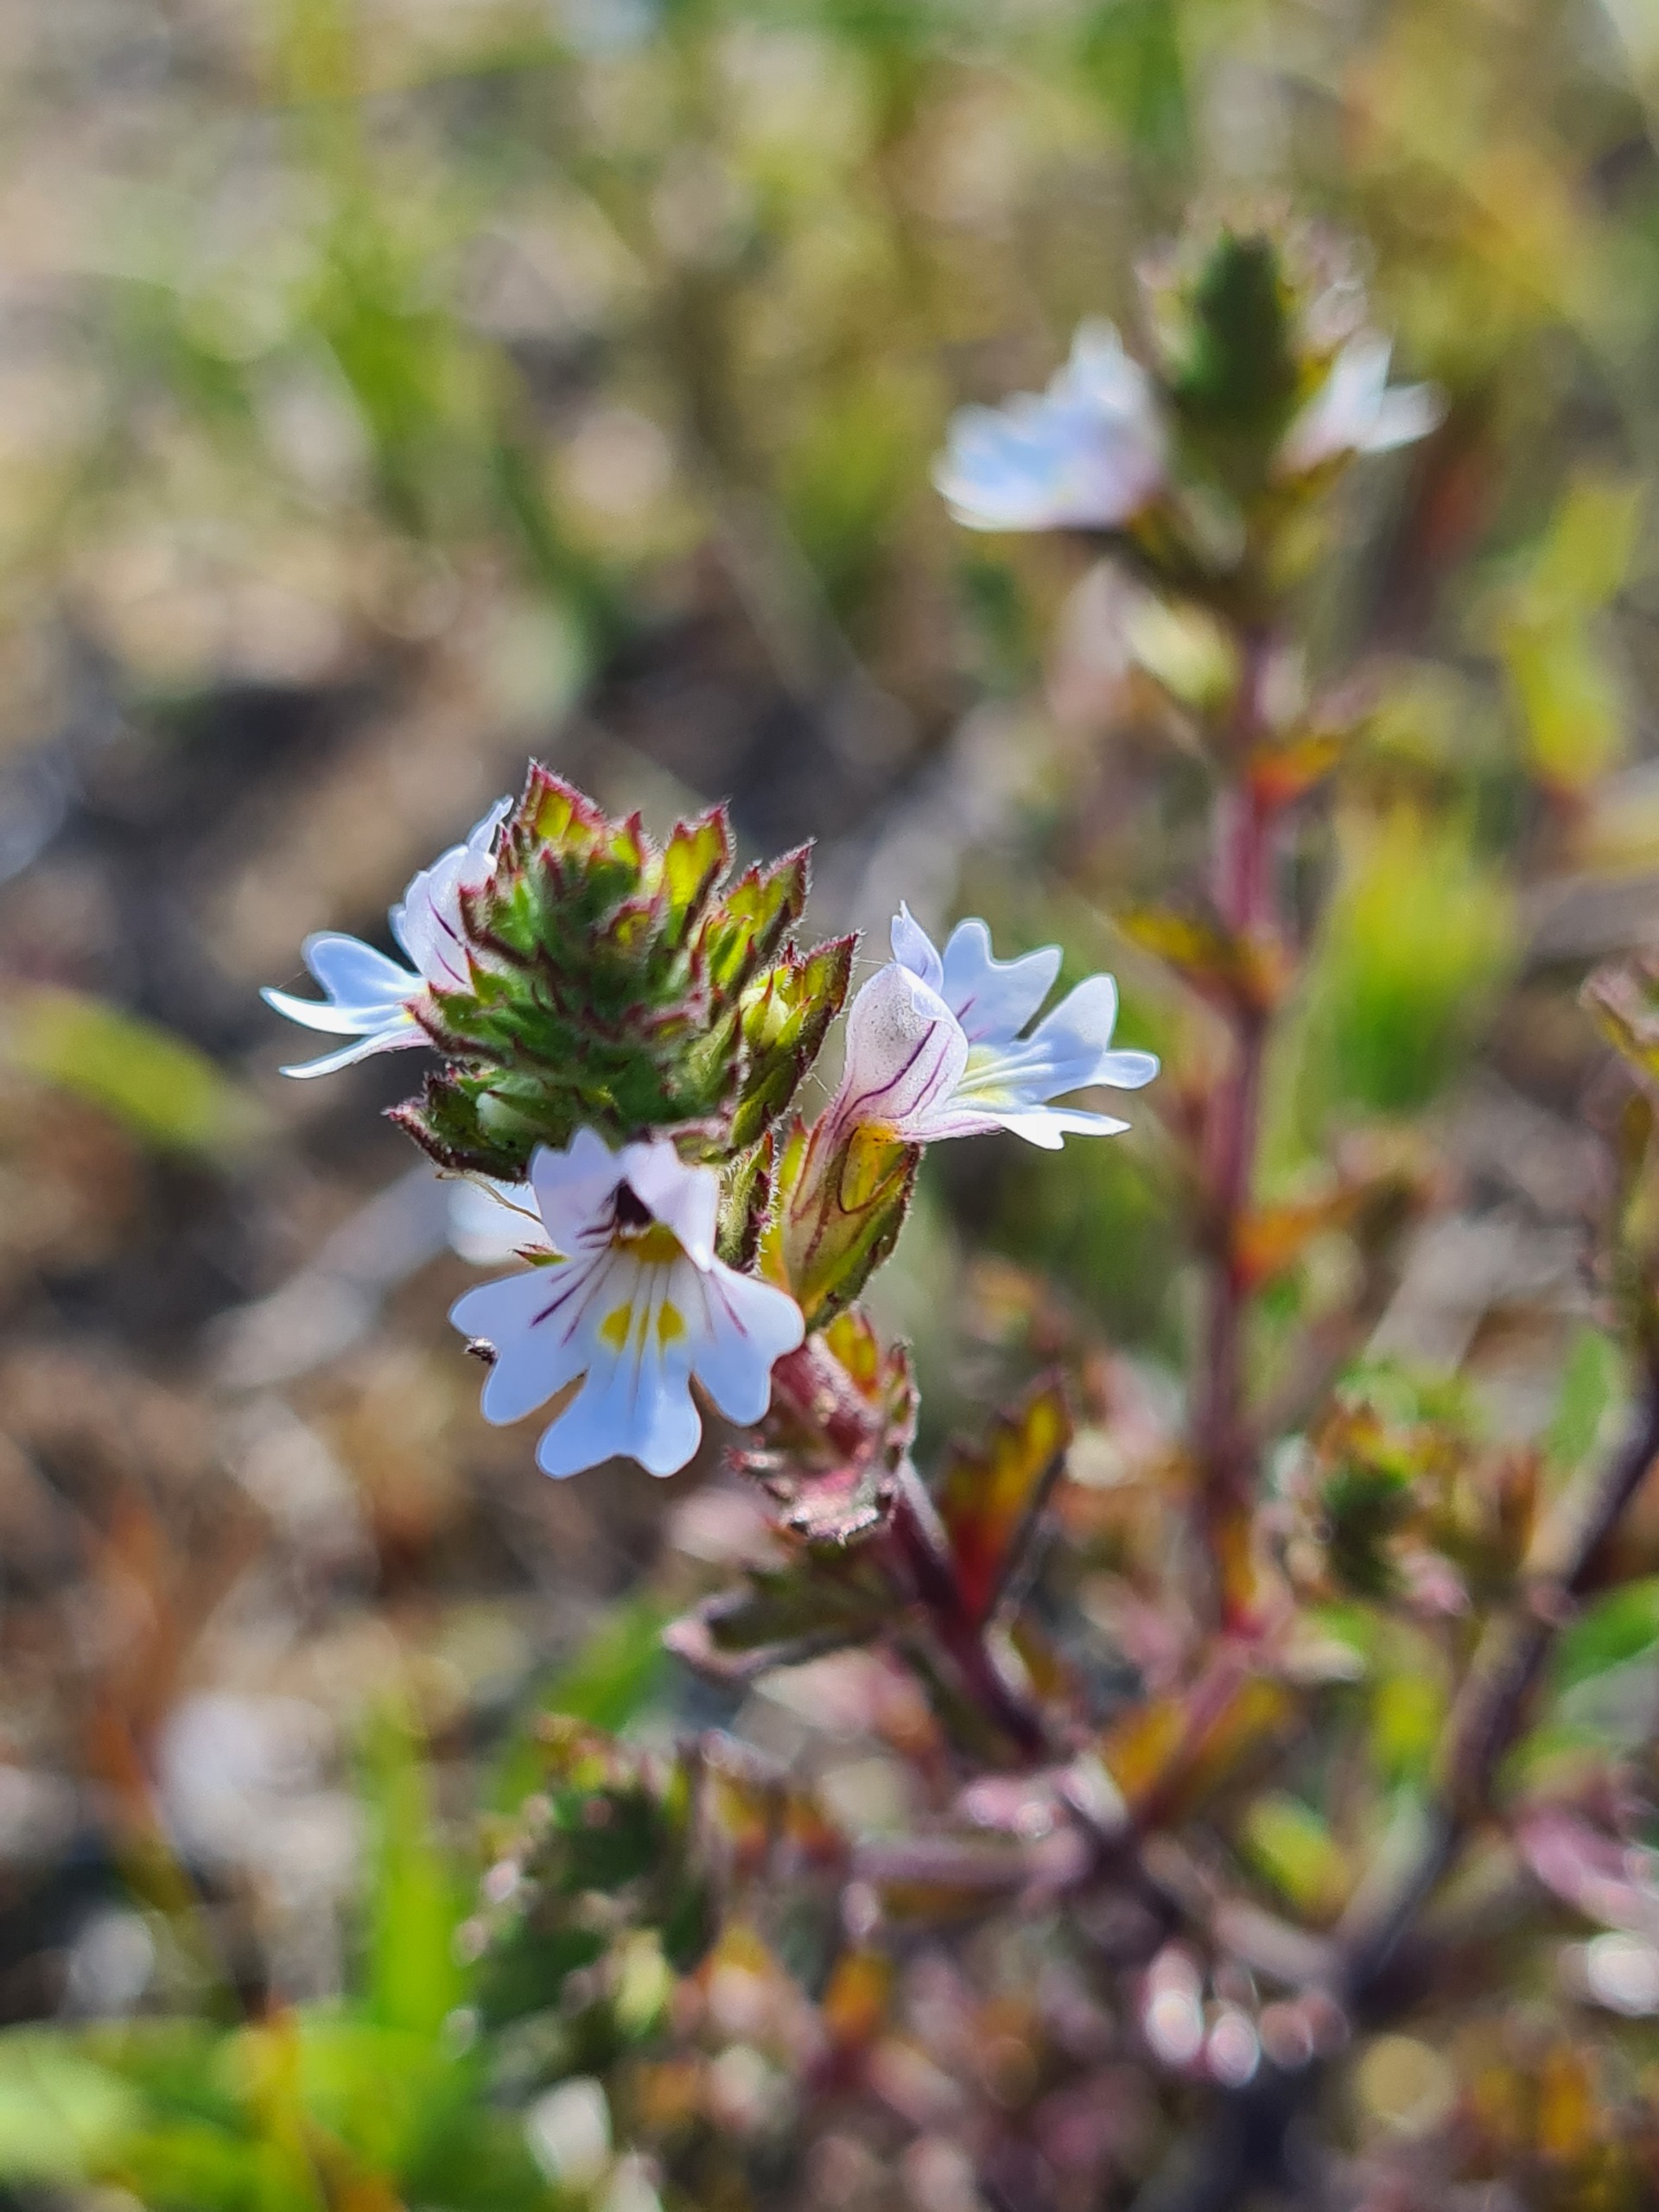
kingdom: Plantae
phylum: Tracheophyta
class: Magnoliopsida
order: Lamiales
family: Orobanchaceae
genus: Euphrasia
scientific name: Euphrasia nemorosa
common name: Kort øjentrøst
